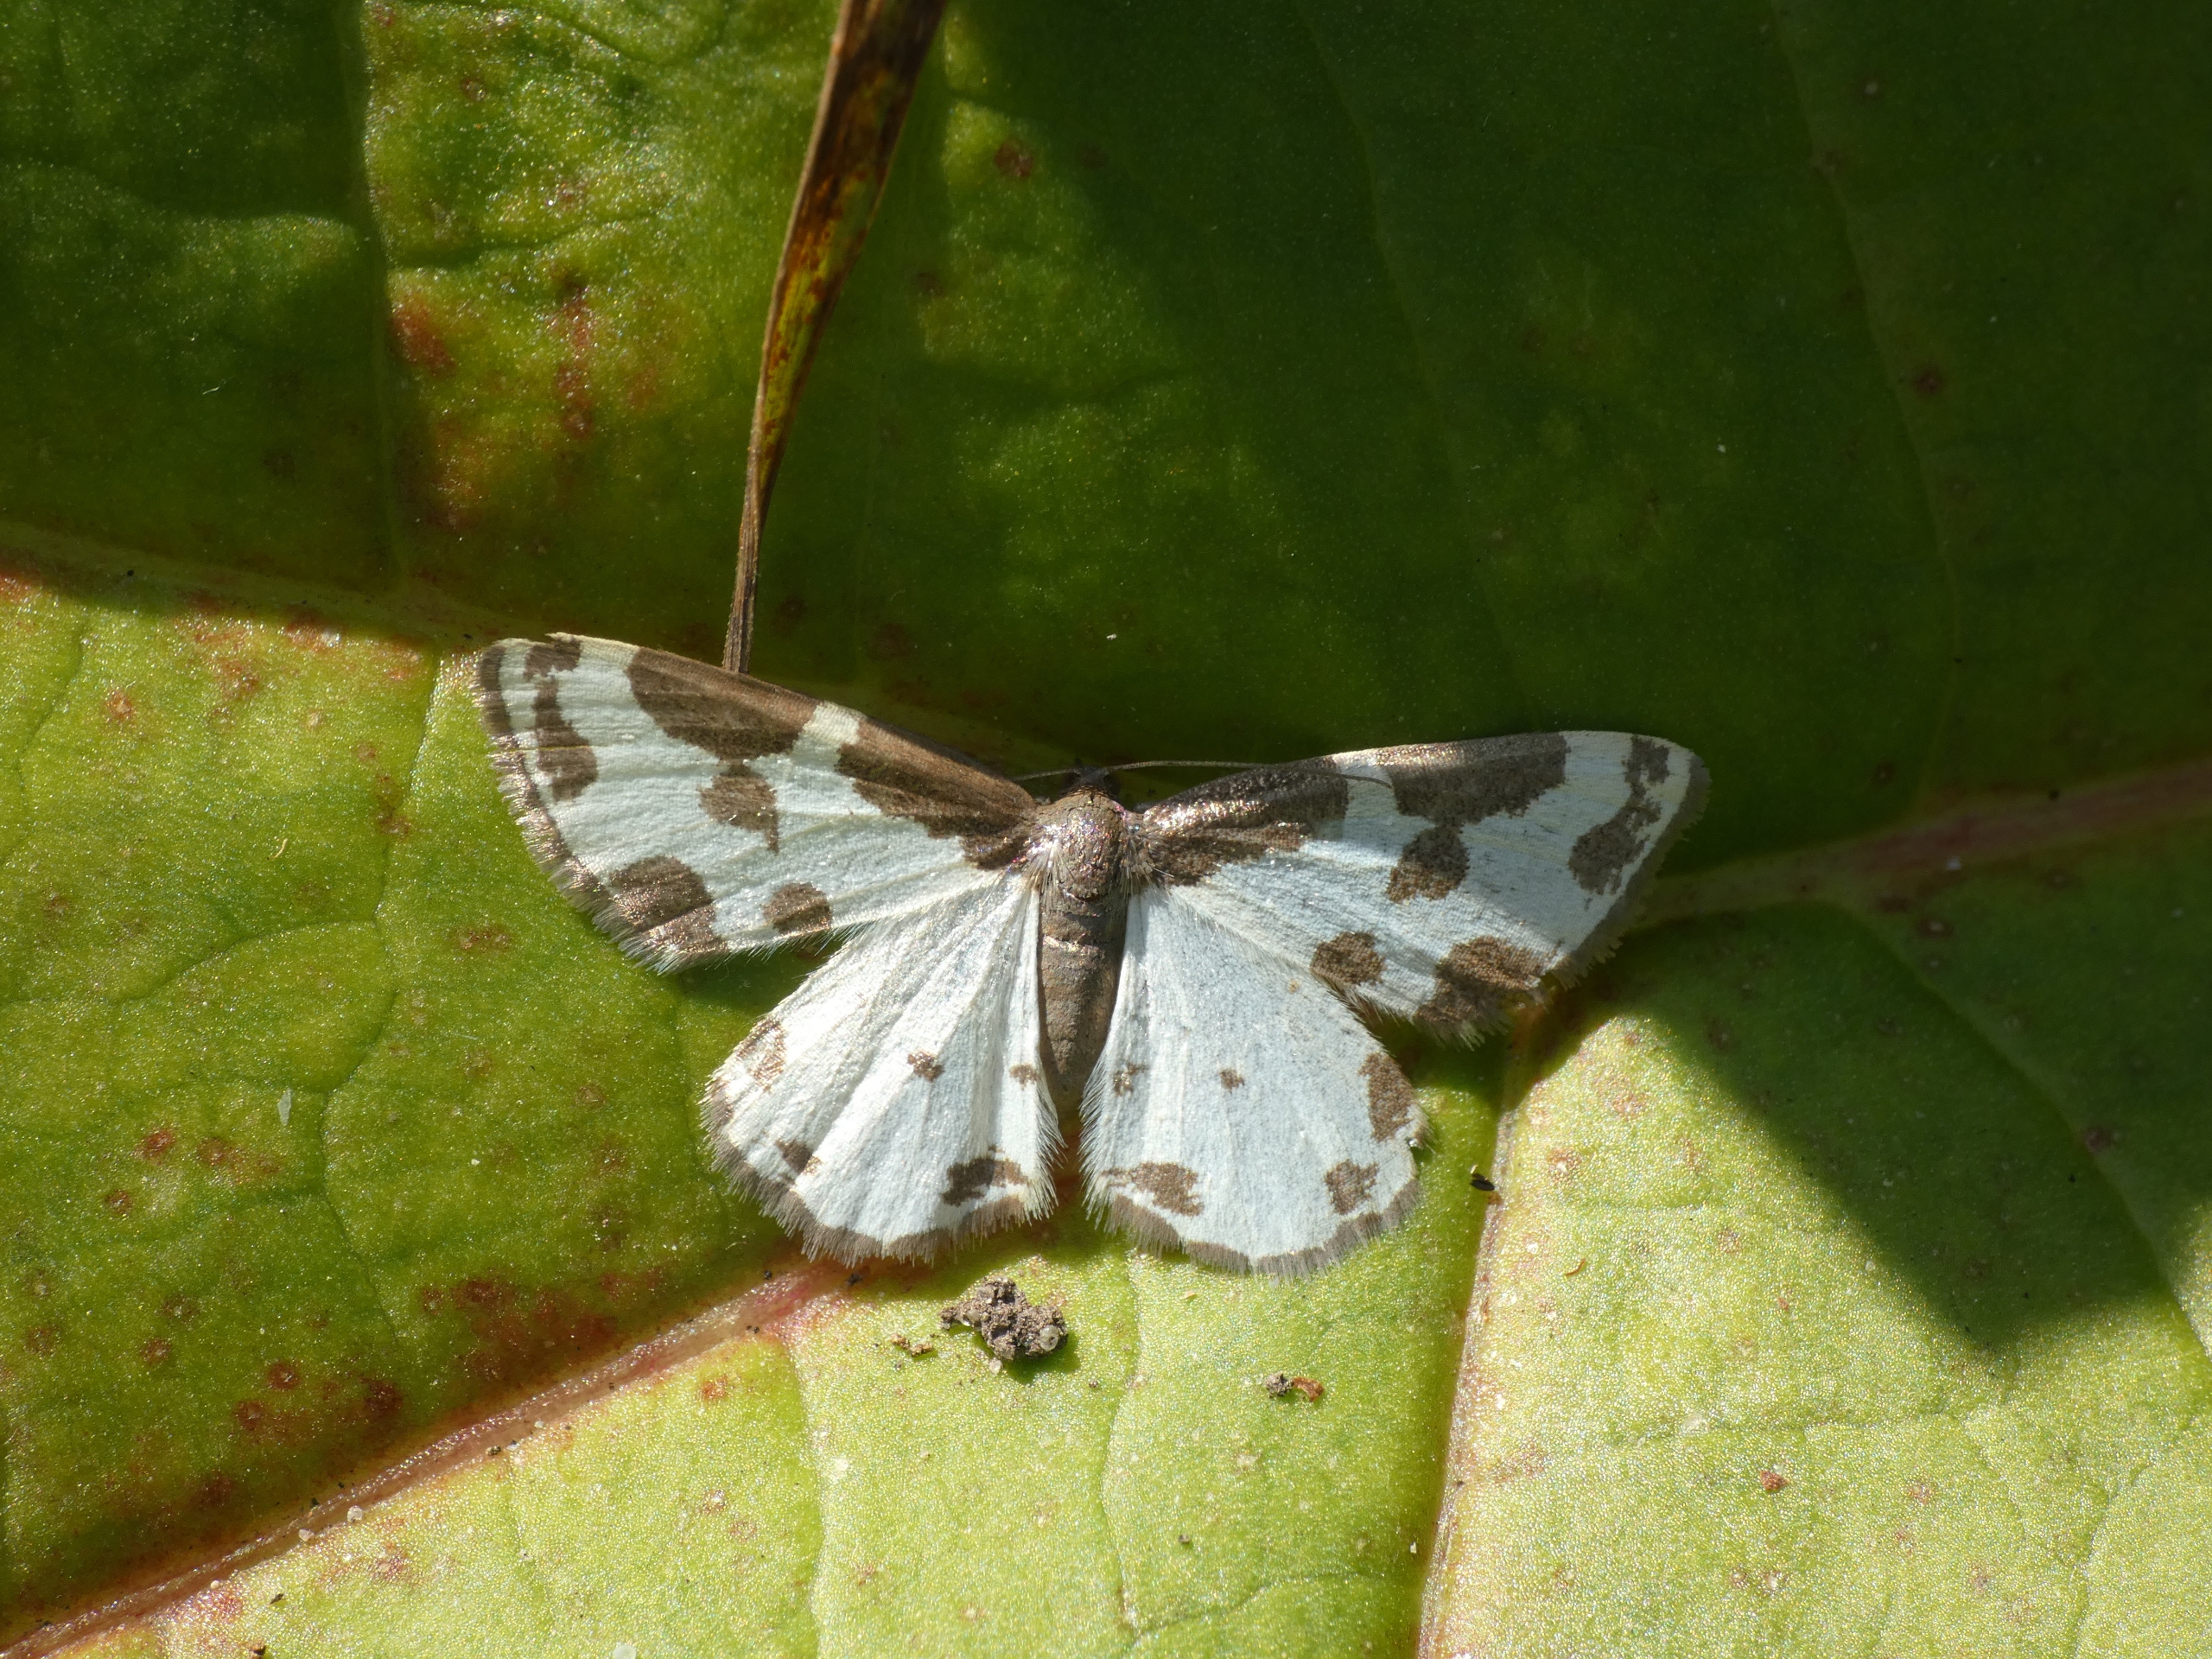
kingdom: Animalia
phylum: Arthropoda
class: Insecta
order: Lepidoptera
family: Geometridae
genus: Lomaspilis
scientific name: Lomaspilis marginata
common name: Sortrandet måler
